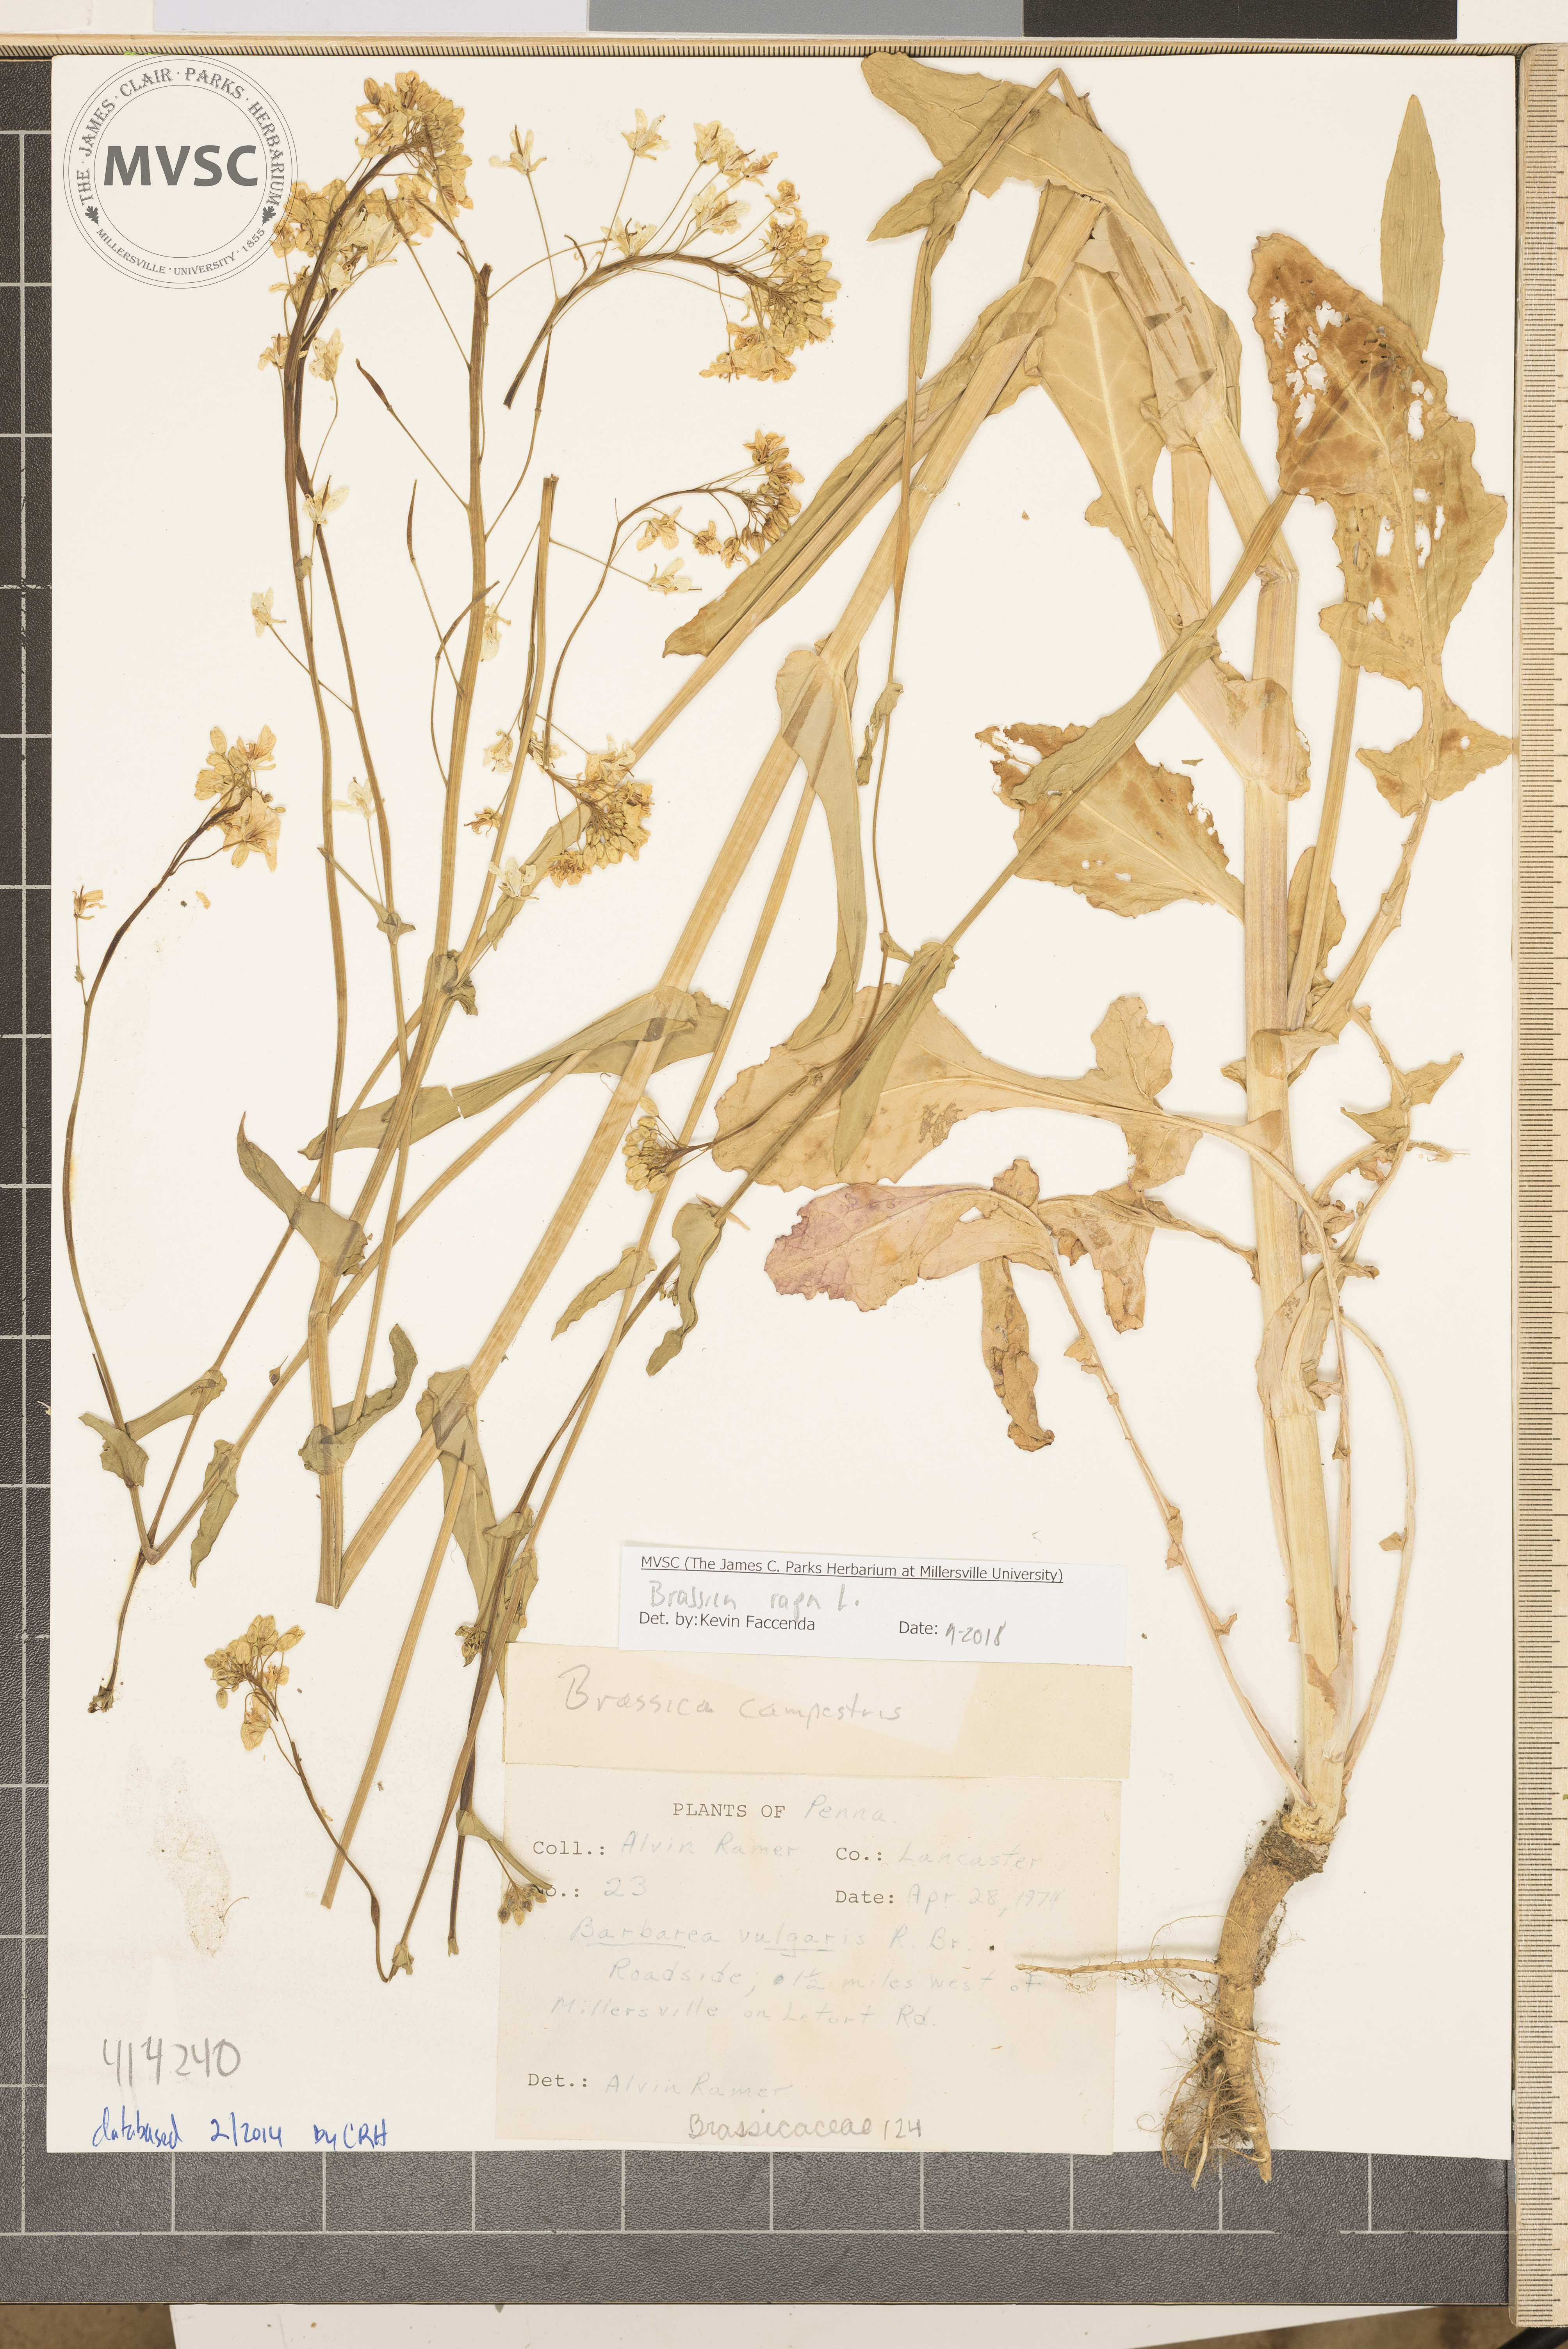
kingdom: Plantae
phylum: Tracheophyta
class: Magnoliopsida
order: Brassicales
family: Brassicaceae
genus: Brassica
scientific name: Brassica rapa
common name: Field mustard
